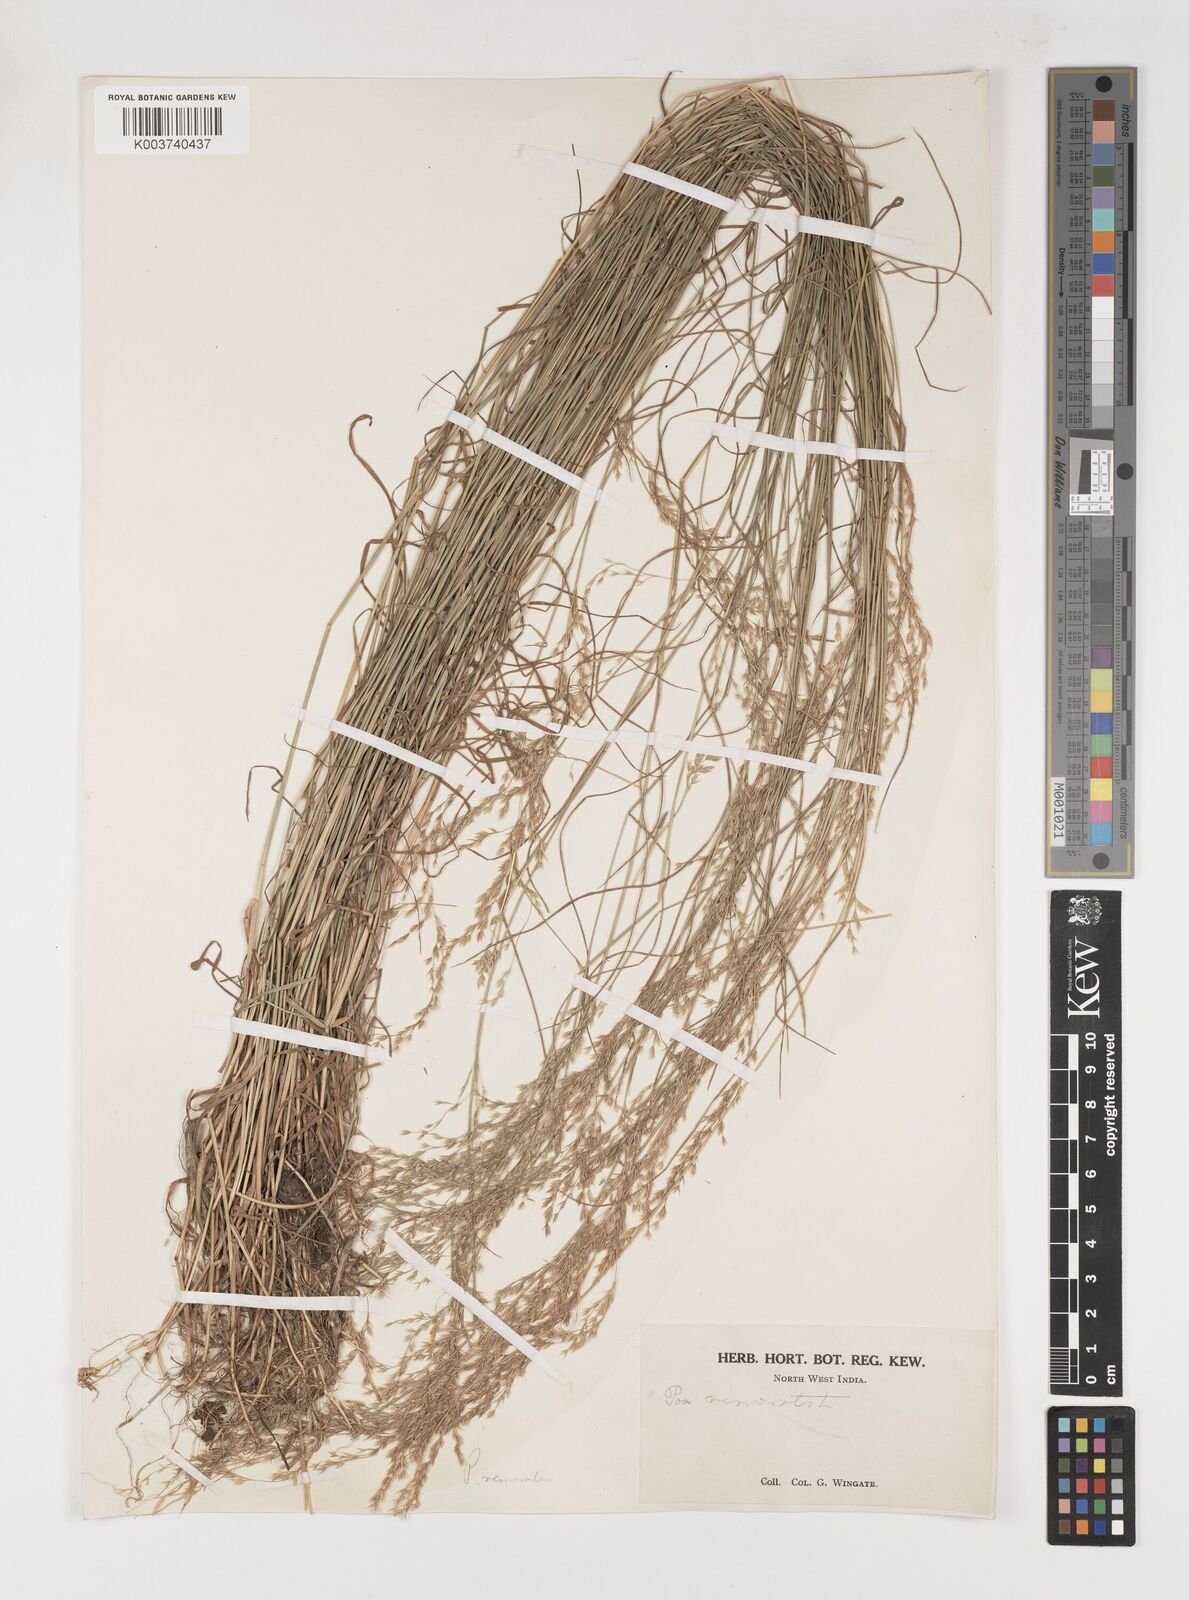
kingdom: Plantae
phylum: Tracheophyta
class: Liliopsida
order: Poales
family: Poaceae
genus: Poa
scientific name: Poa nemoralis
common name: Wood bluegrass
